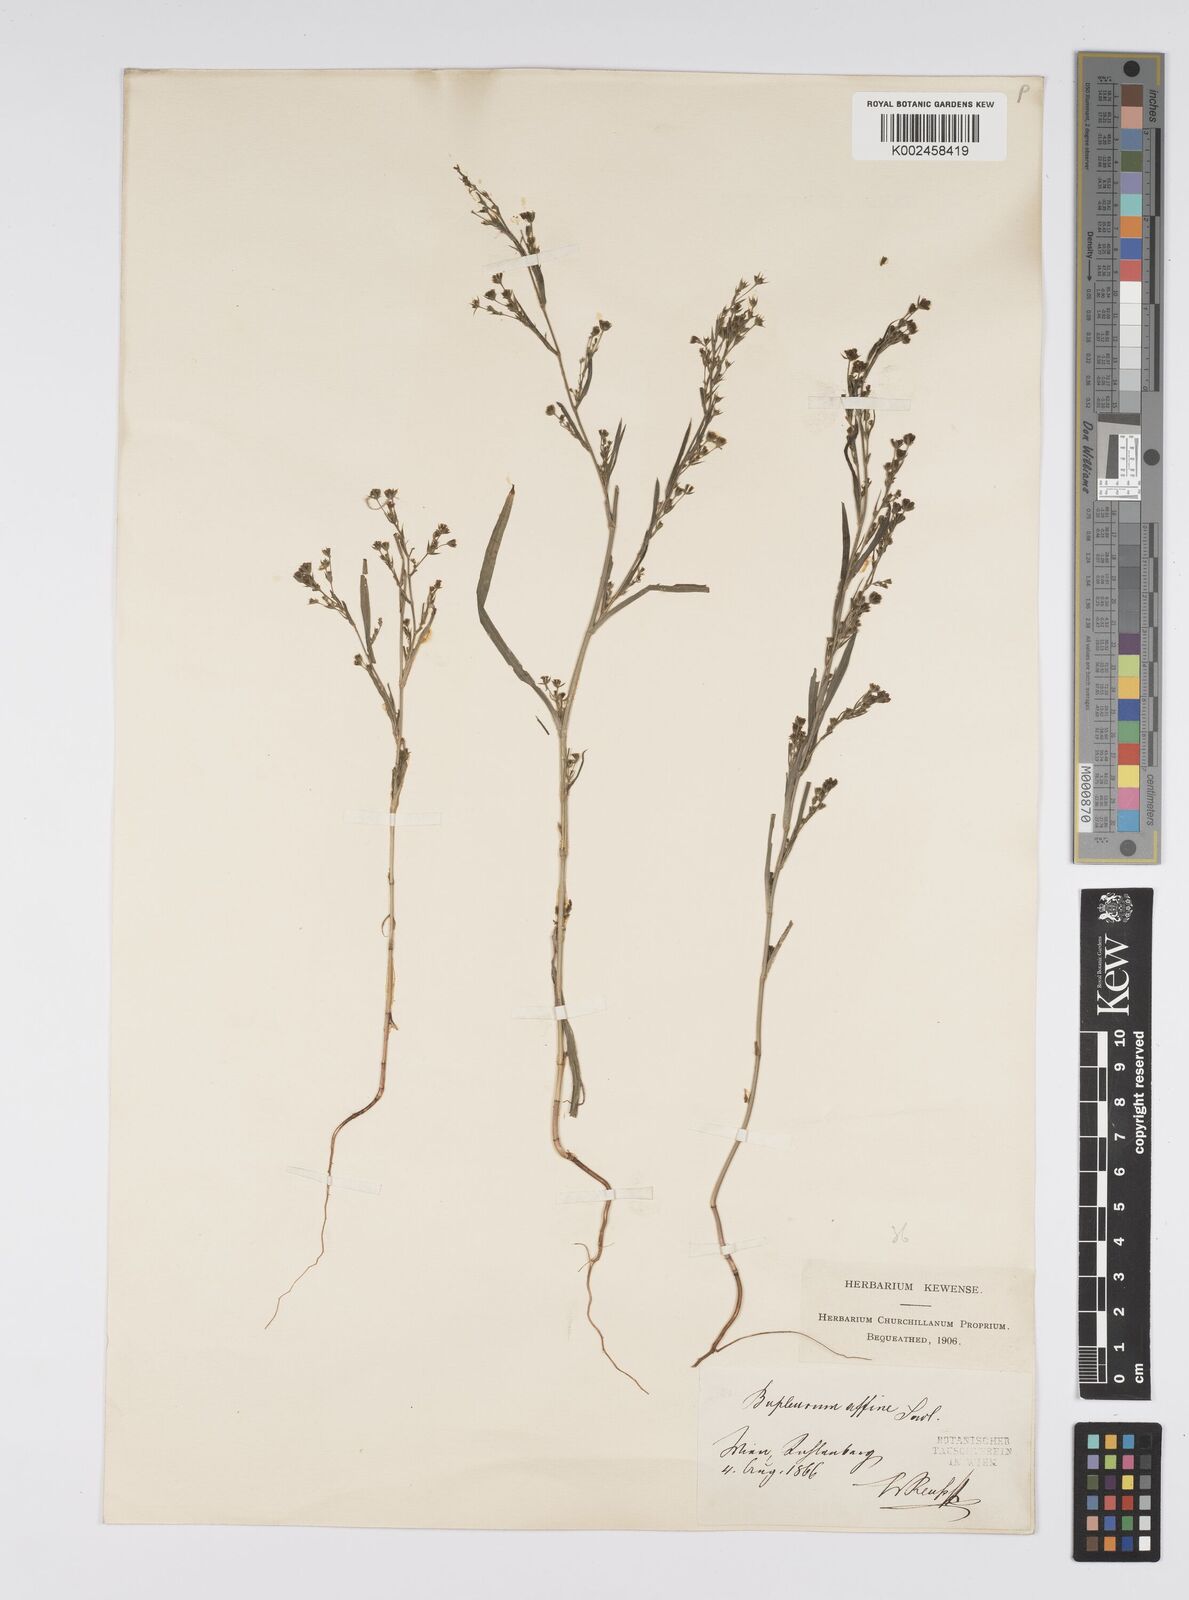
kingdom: Plantae
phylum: Tracheophyta
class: Magnoliopsida
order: Apiales
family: Apiaceae
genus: Bupleurum
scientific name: Bupleurum affine
